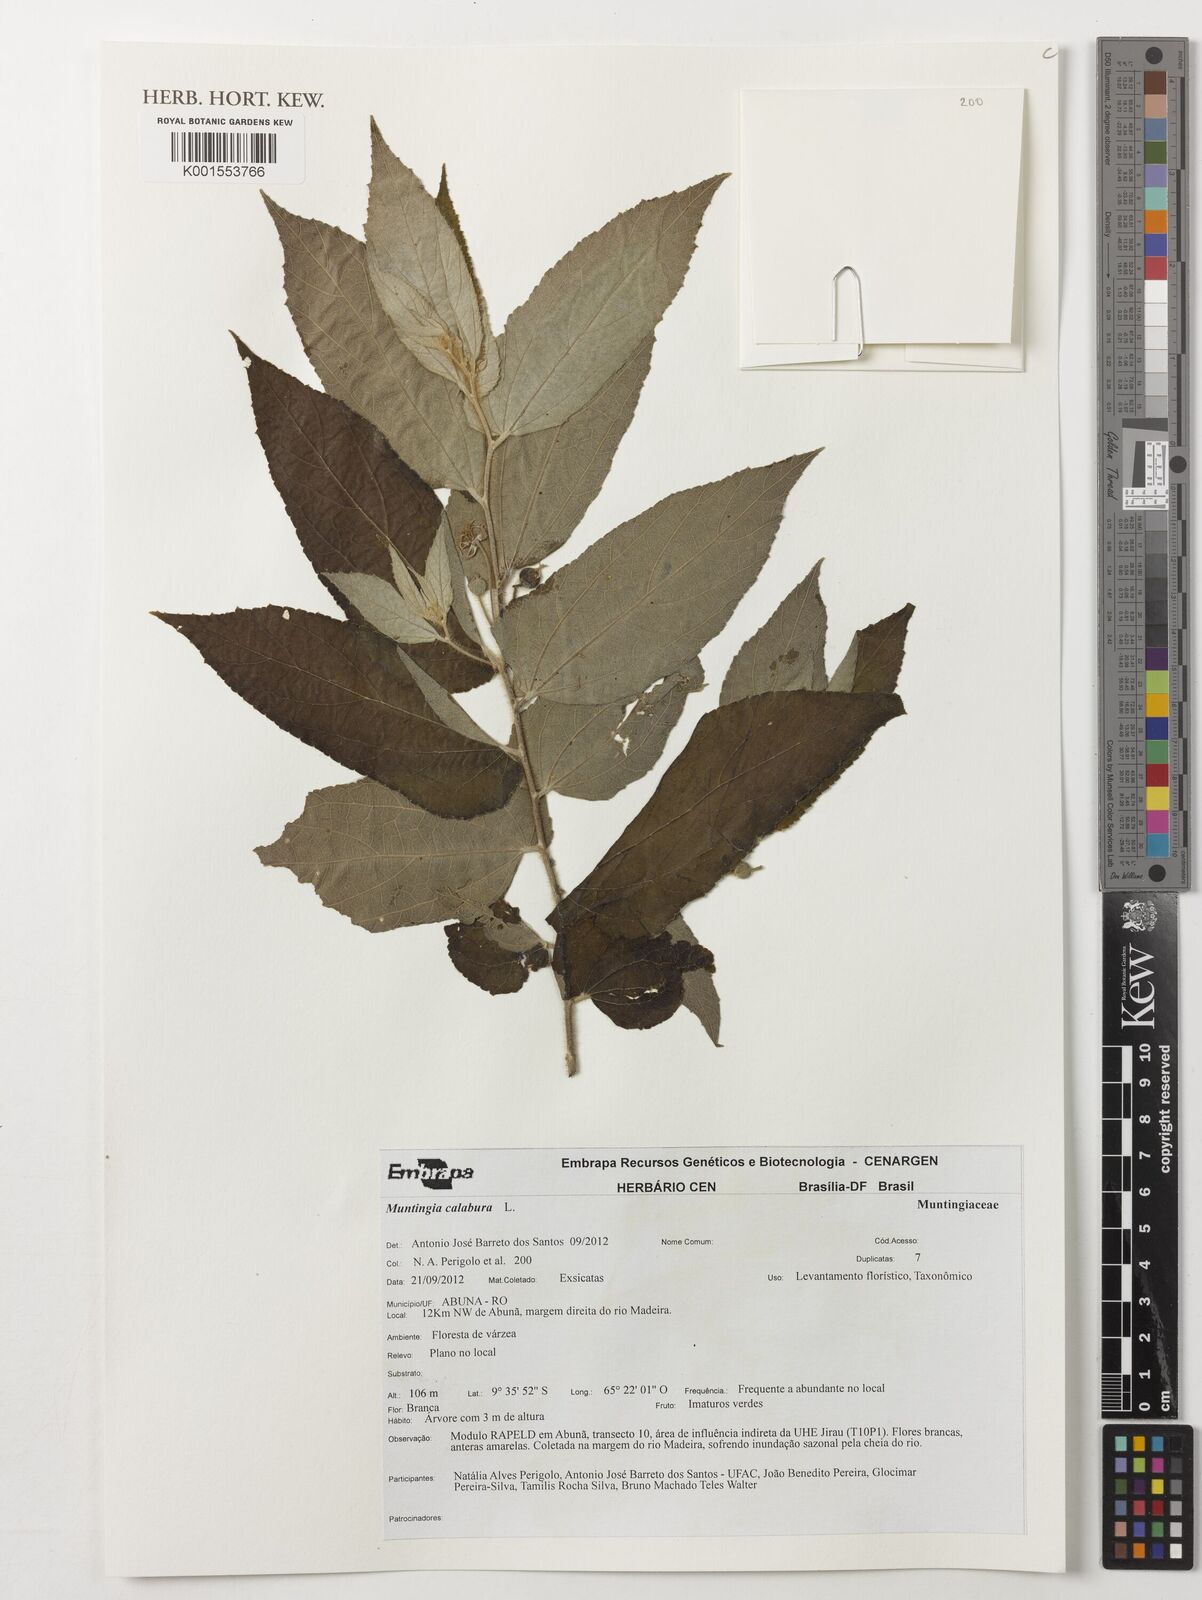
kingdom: Plantae
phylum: Tracheophyta
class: Magnoliopsida
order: Malvales
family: Muntingiaceae
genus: Muntingia
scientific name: Muntingia calabura
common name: Strawberrytree
